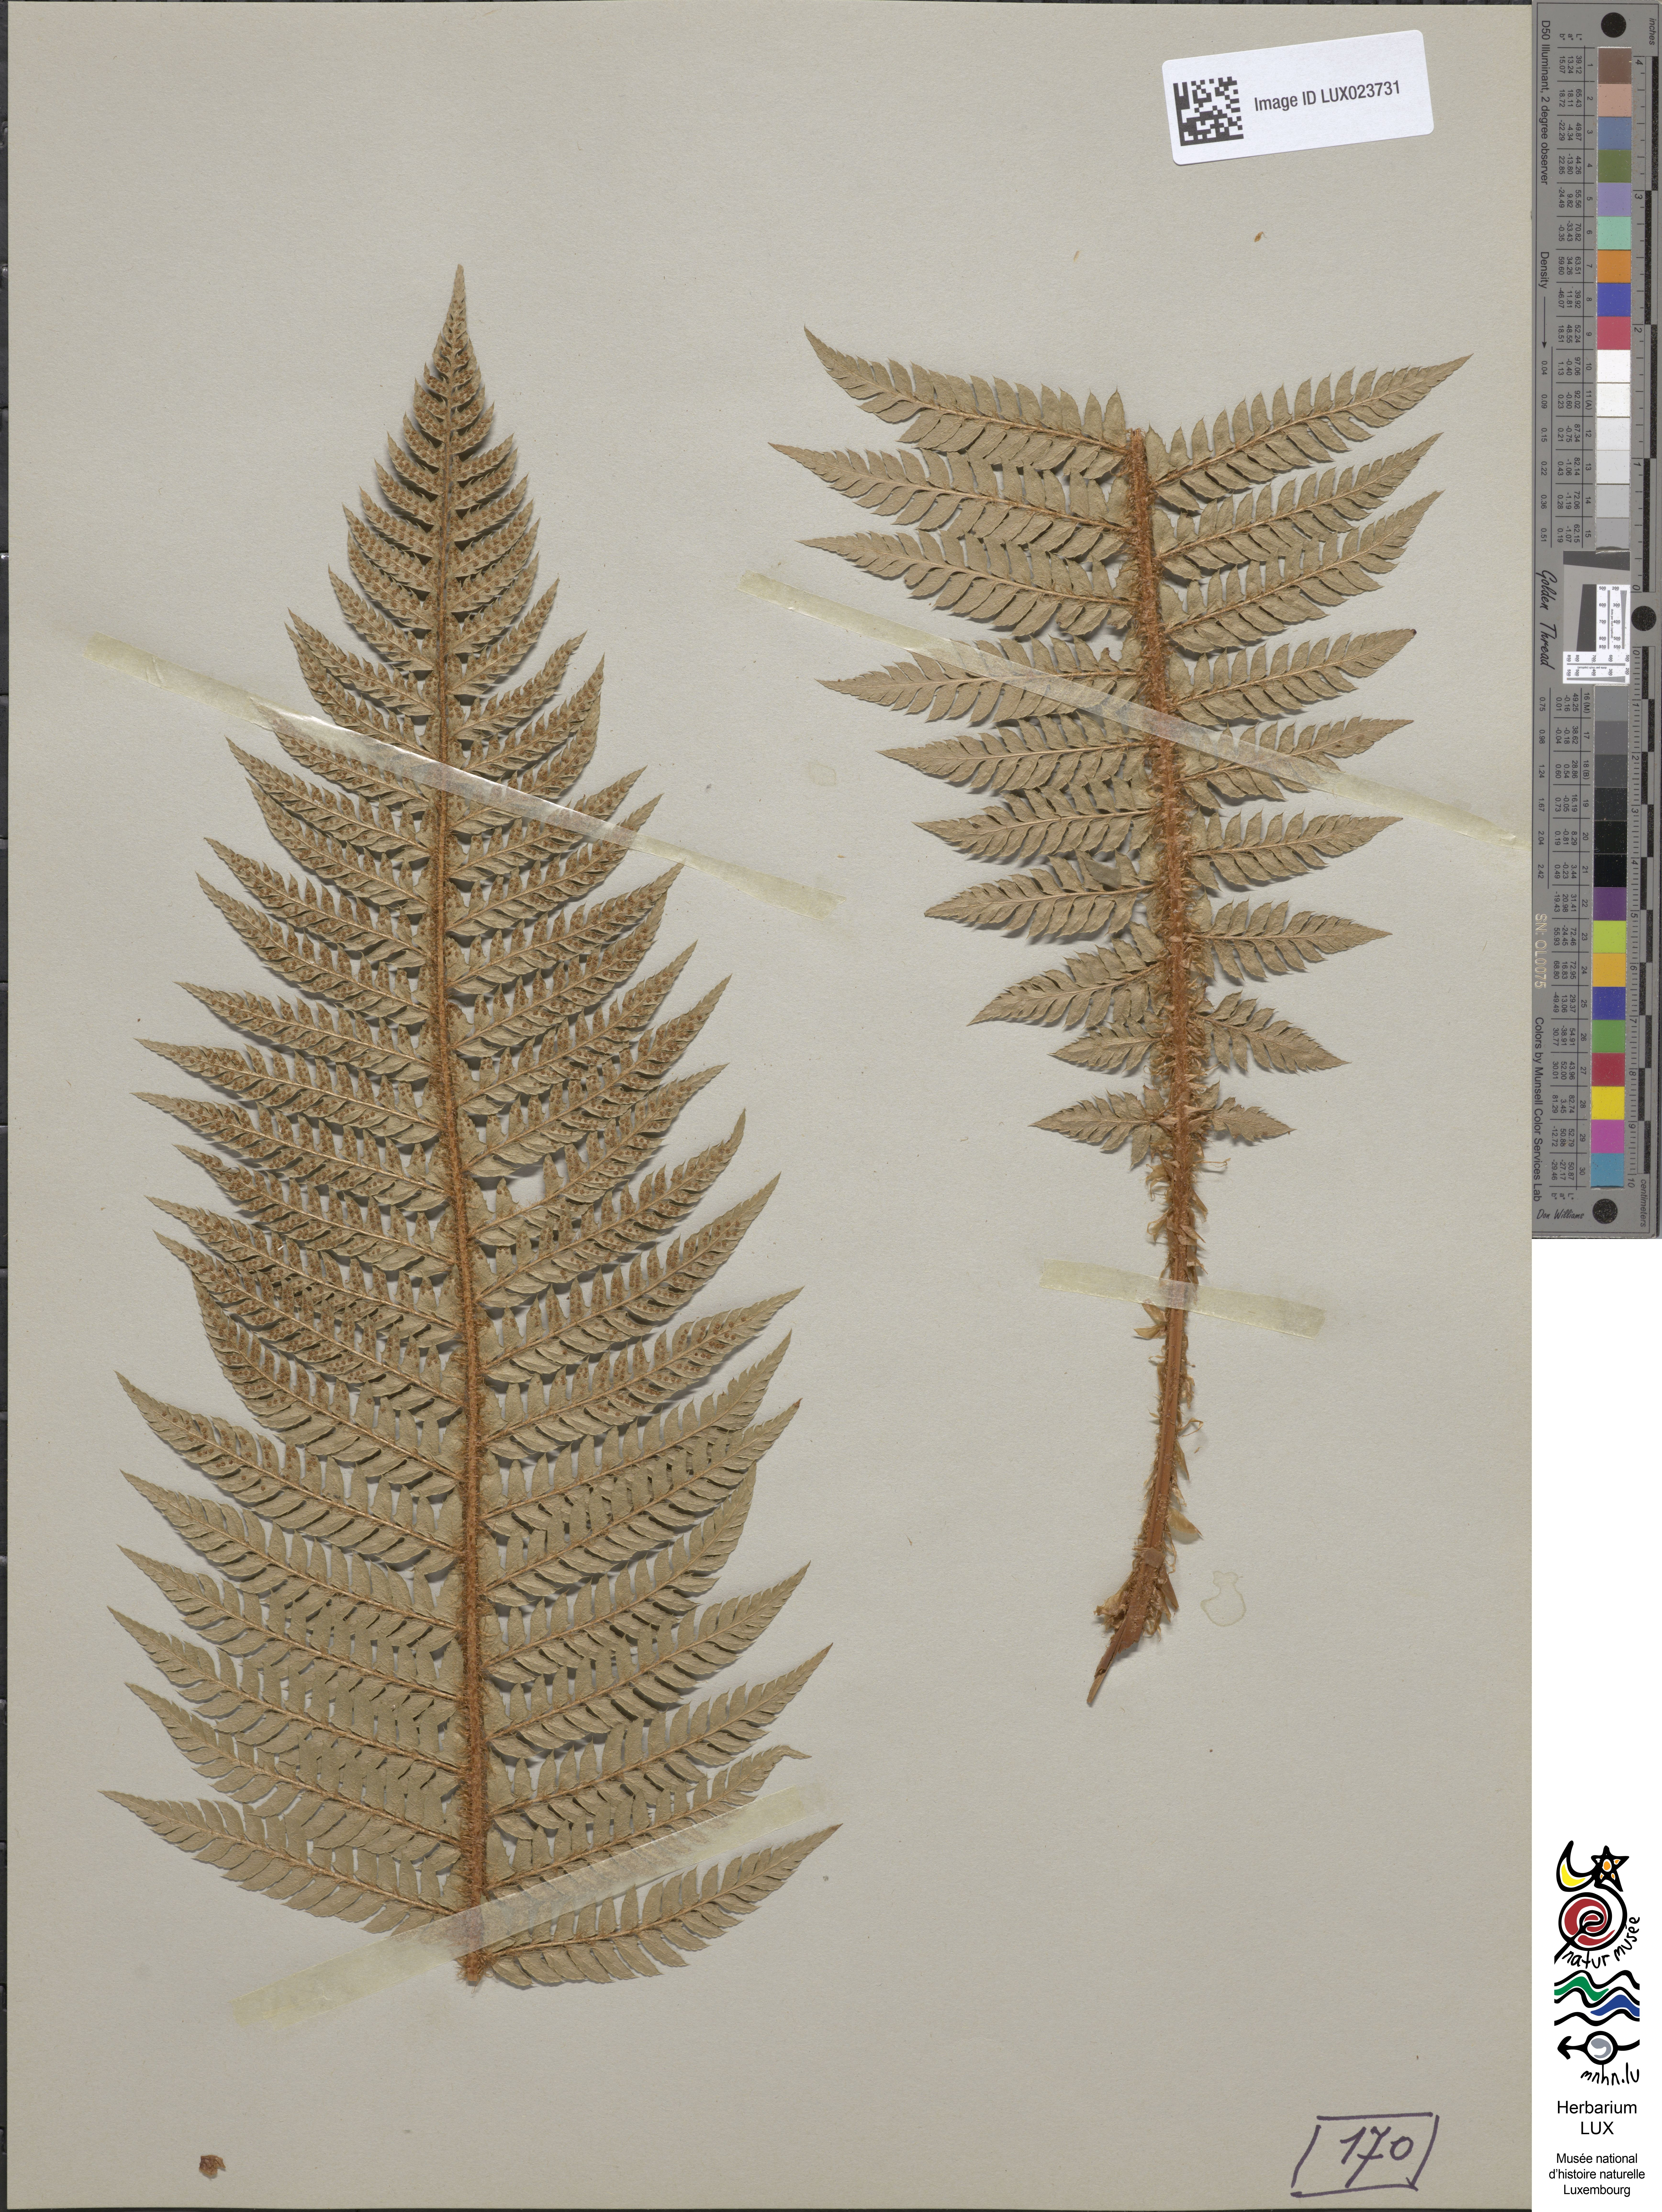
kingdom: Plantae
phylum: Tracheophyta
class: Polypodiopsida
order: Polypodiales
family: Dryopteridaceae
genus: Polystichum
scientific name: Polystichum aculeatum
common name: Hard shield-fern
